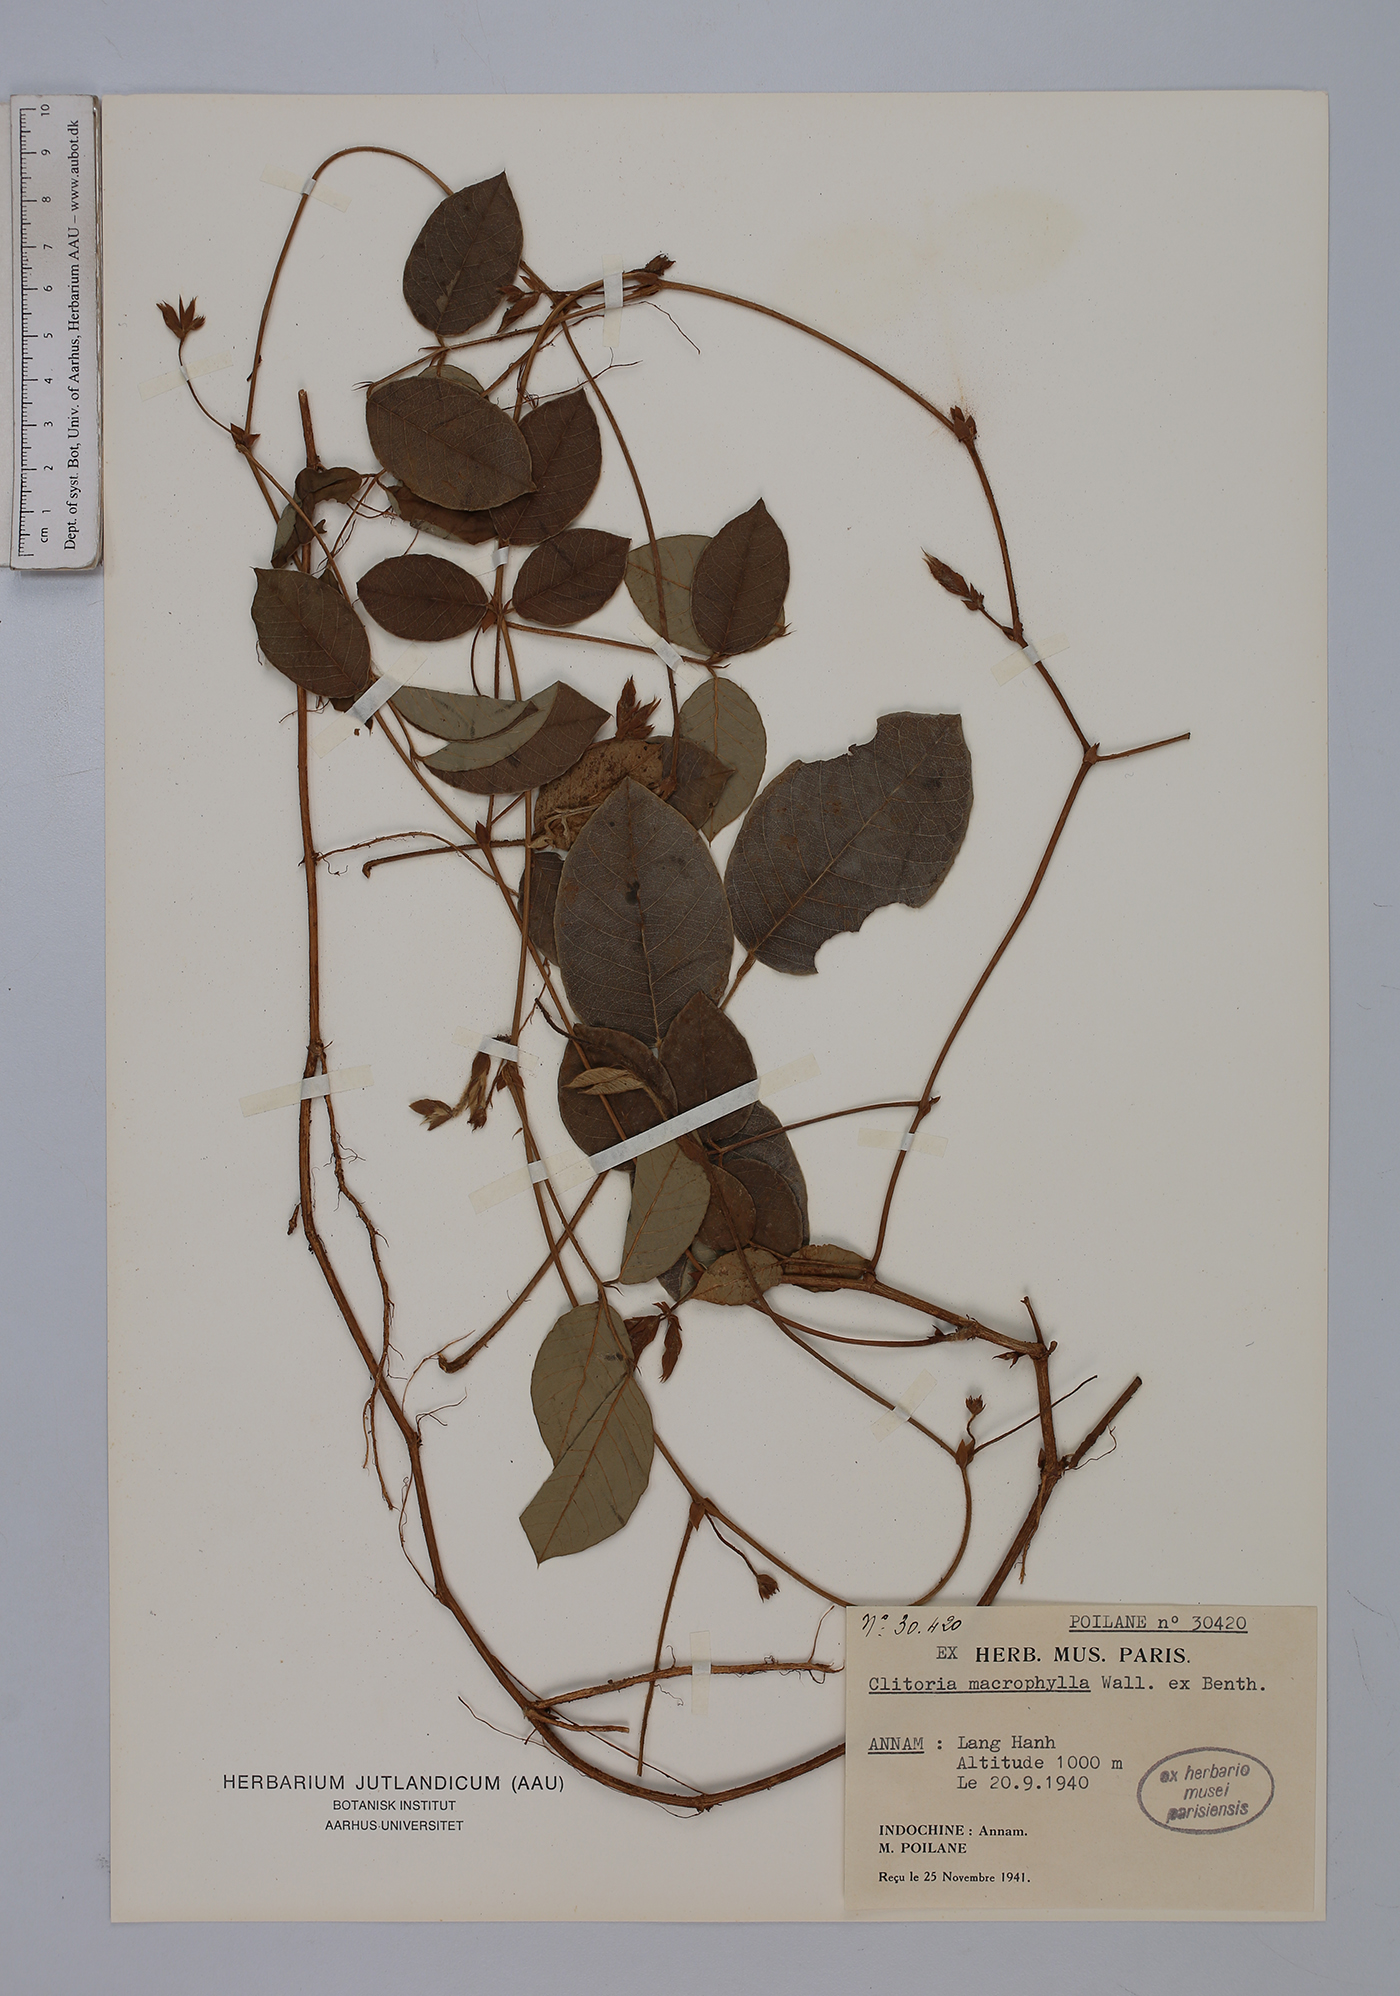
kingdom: Plantae
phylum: Tracheophyta
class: Magnoliopsida
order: Fabales
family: Fabaceae
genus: Clitoria
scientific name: Clitoria macrophylla
